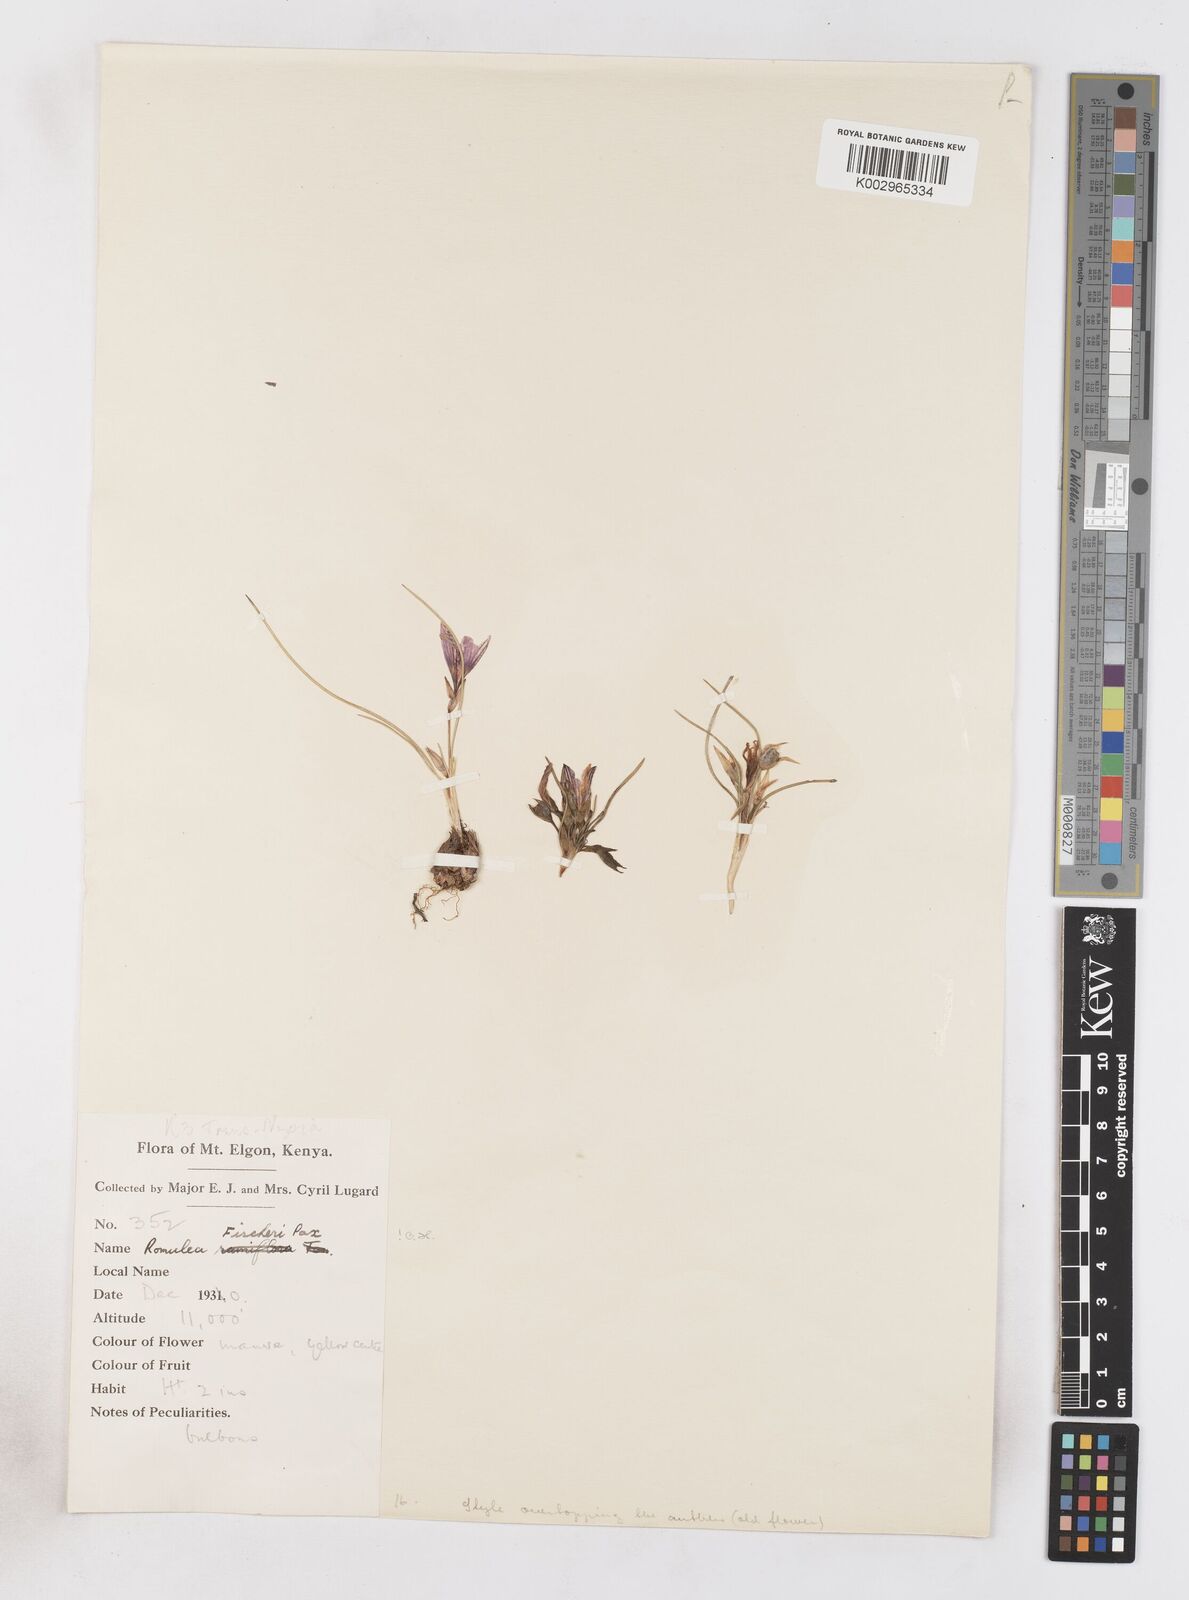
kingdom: Plantae
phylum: Tracheophyta
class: Liliopsida
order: Asparagales
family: Iridaceae
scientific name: Iridaceae
